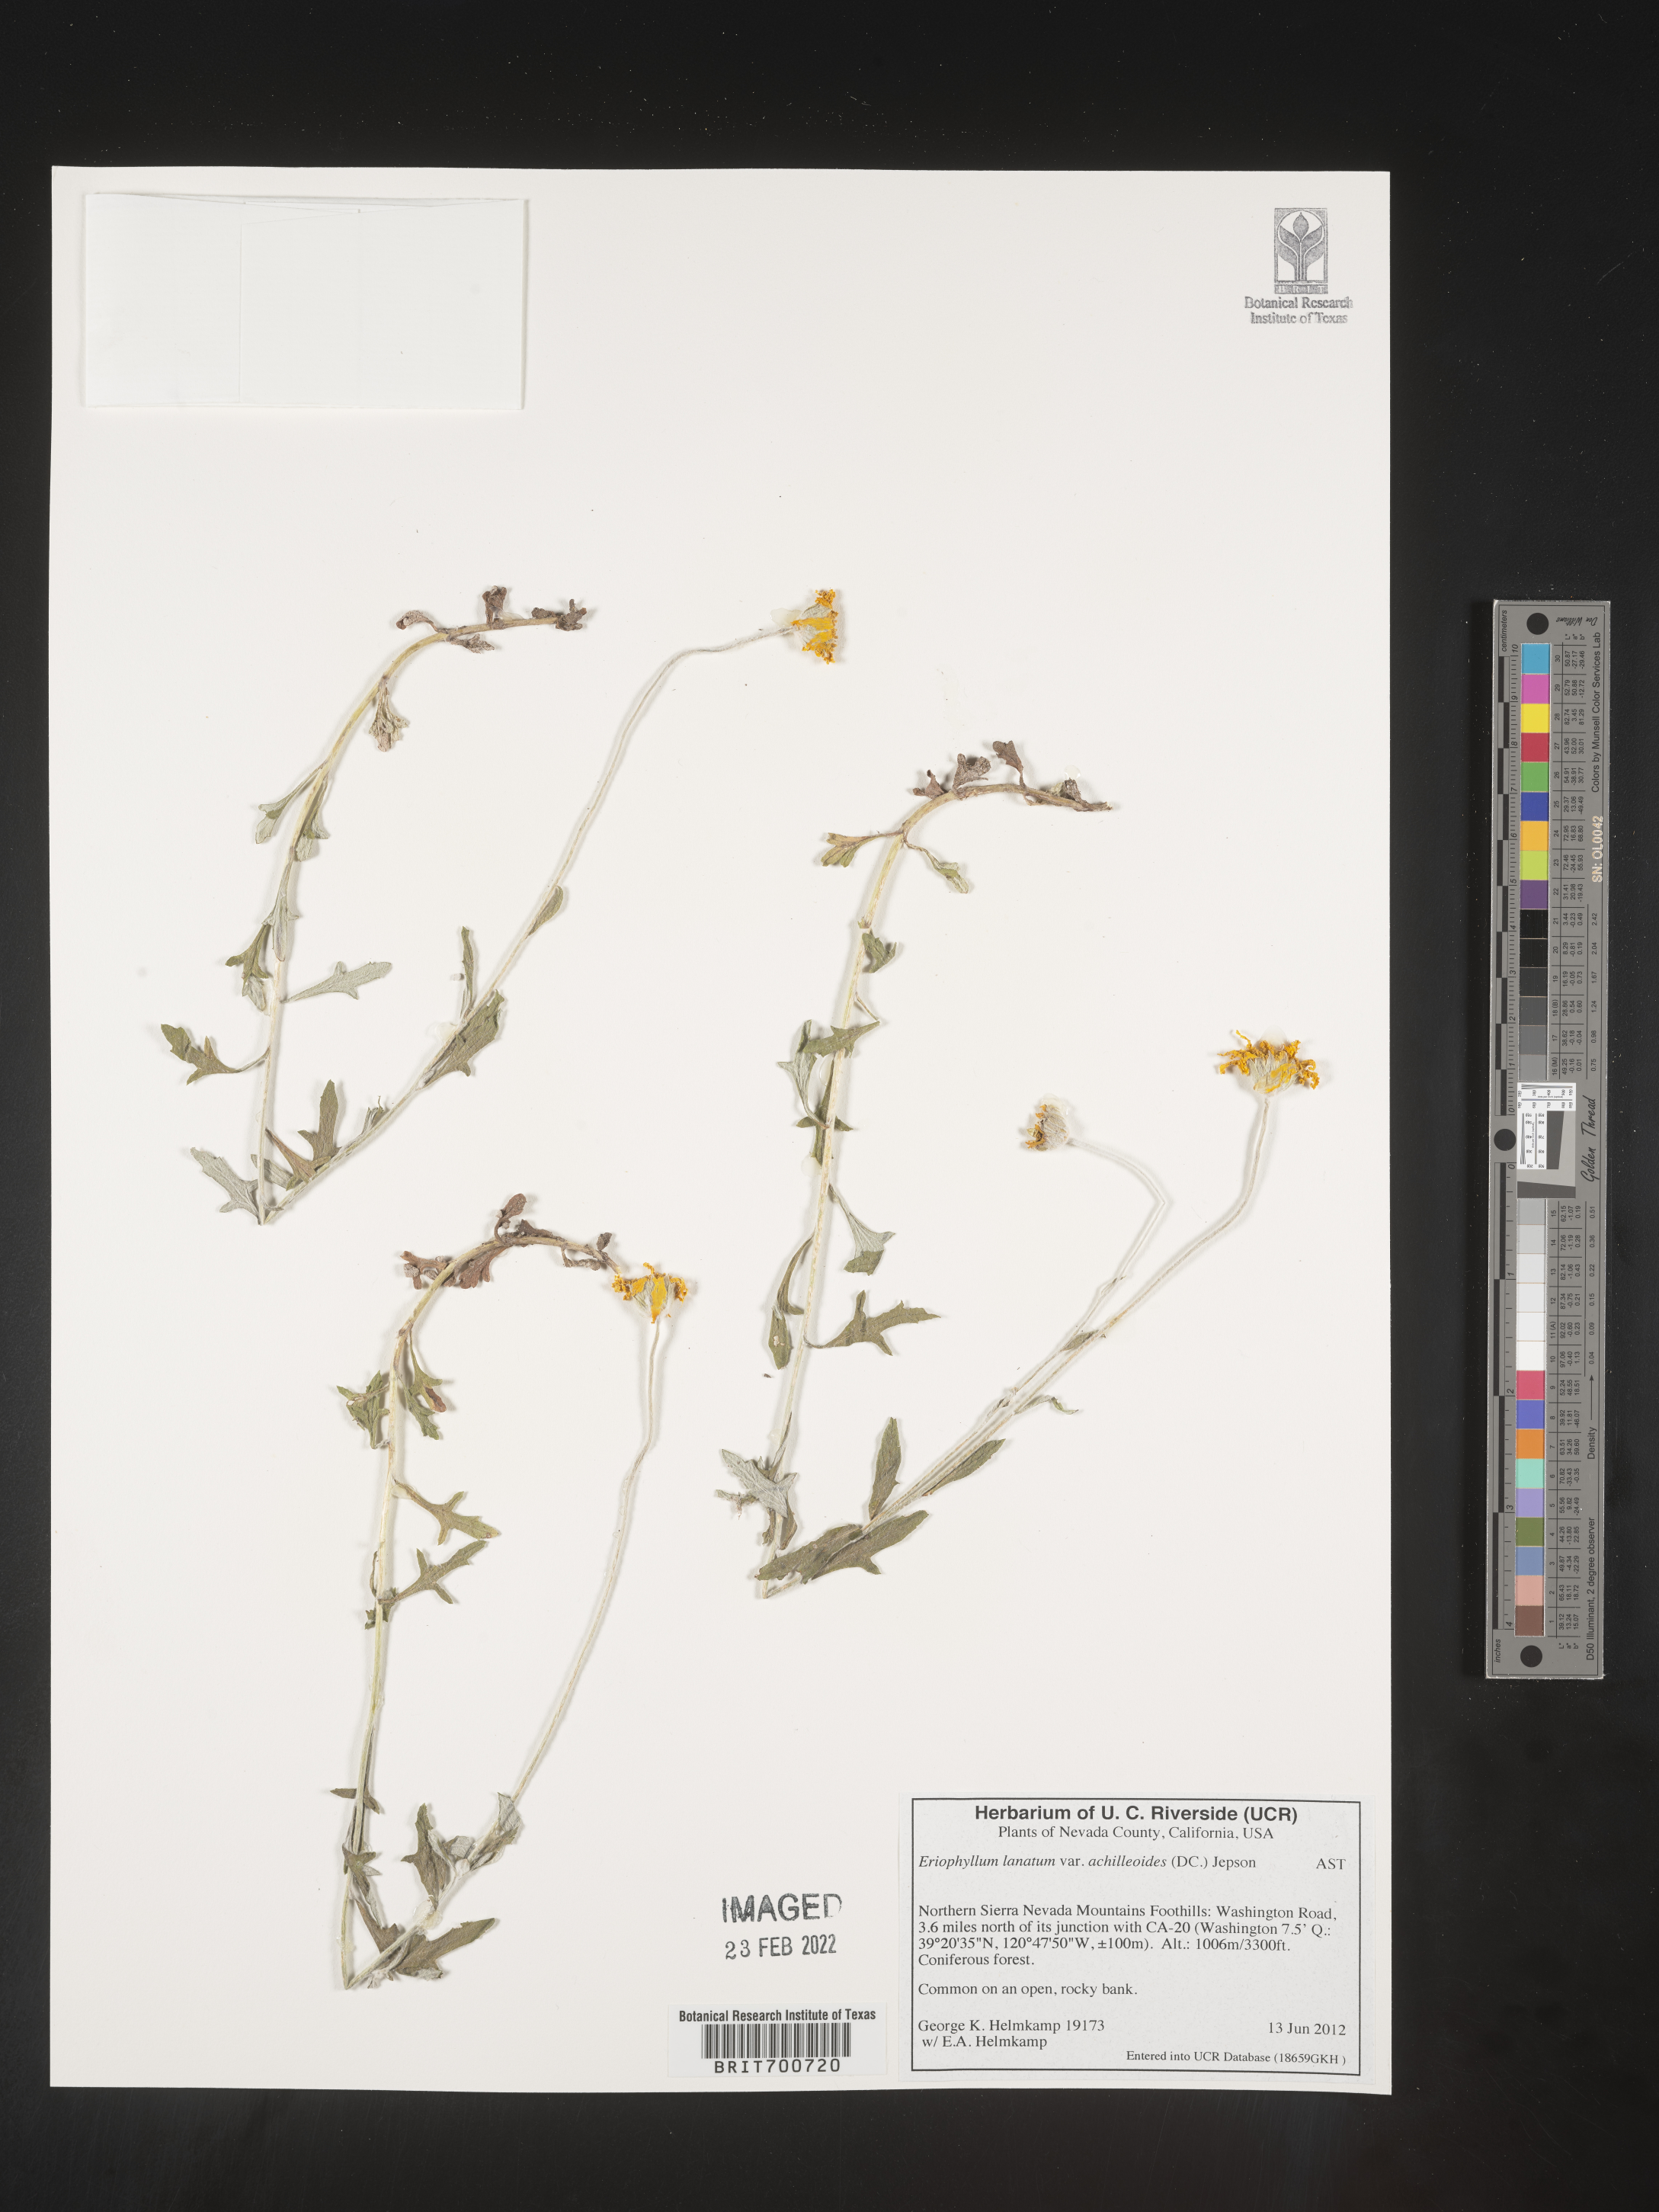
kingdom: Plantae
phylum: Tracheophyta
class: Magnoliopsida
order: Asterales
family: Asteraceae
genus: Eriophyllum
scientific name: Eriophyllum lanatum
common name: Common woolly-sunflower
